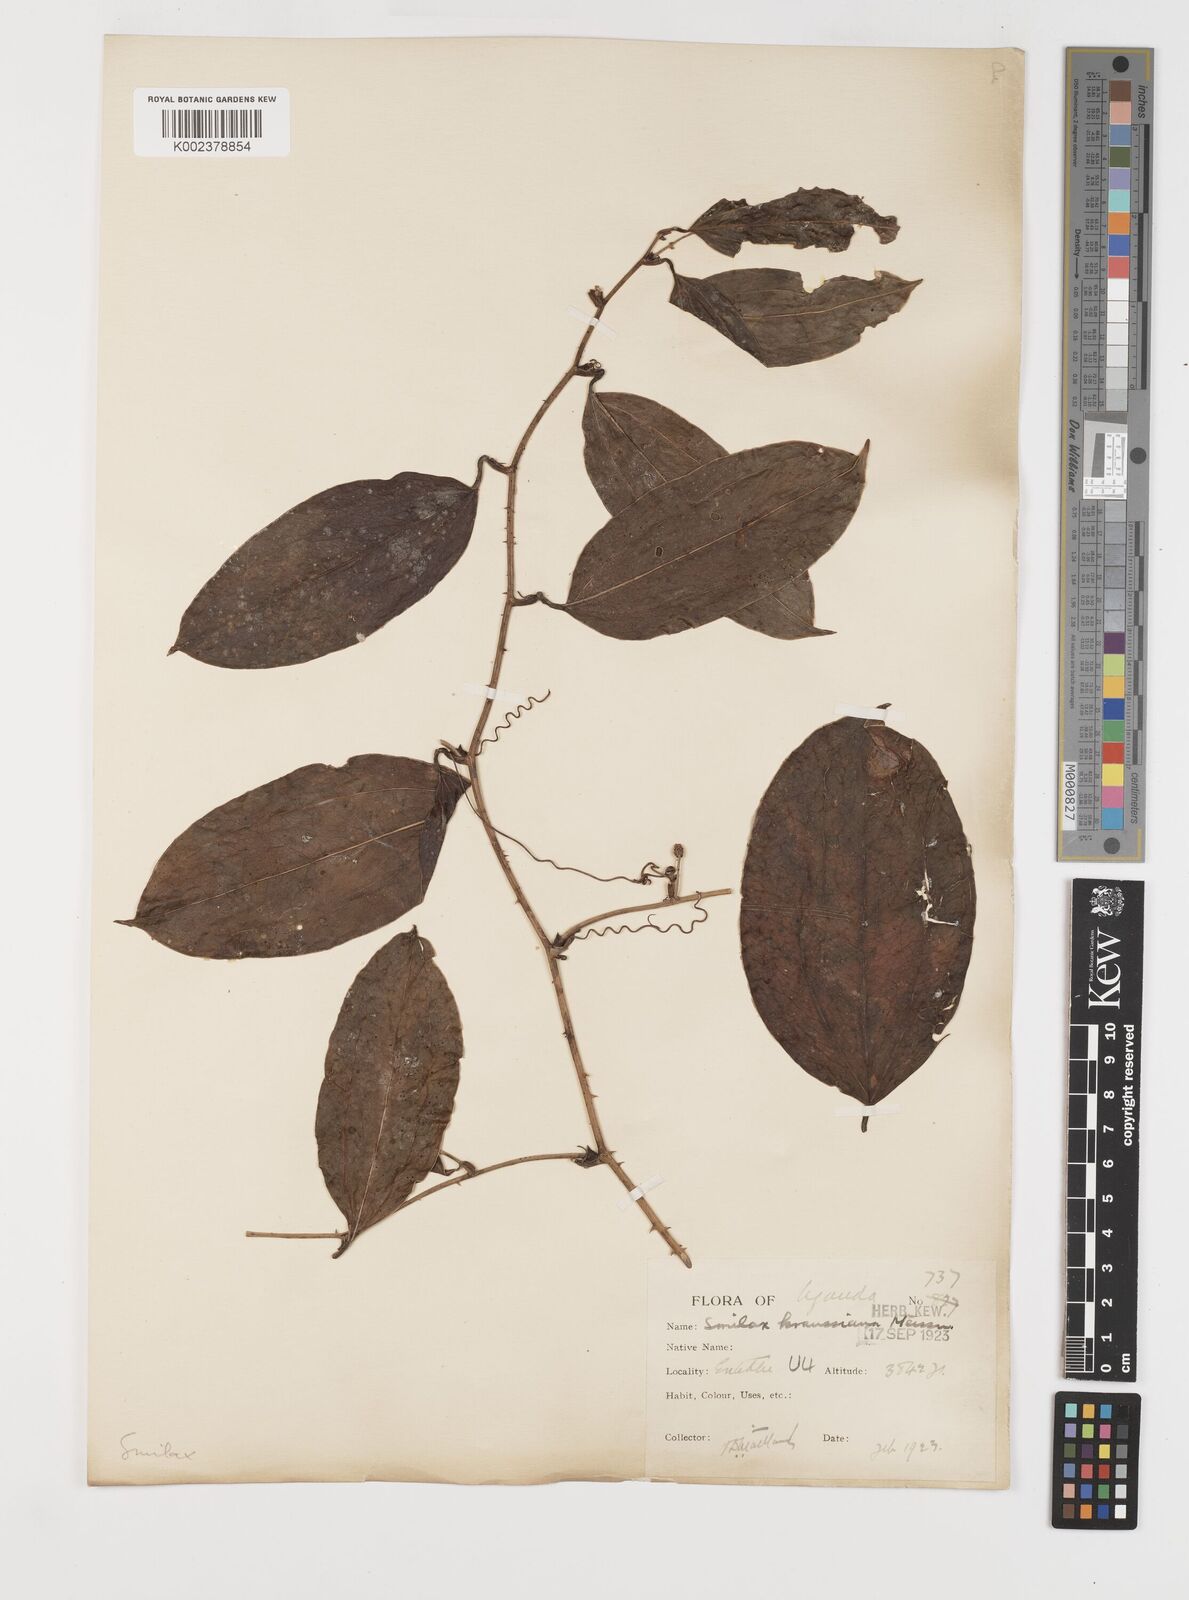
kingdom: Plantae
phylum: Tracheophyta
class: Liliopsida
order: Liliales
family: Smilacaceae
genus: Smilax
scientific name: Smilax anceps
